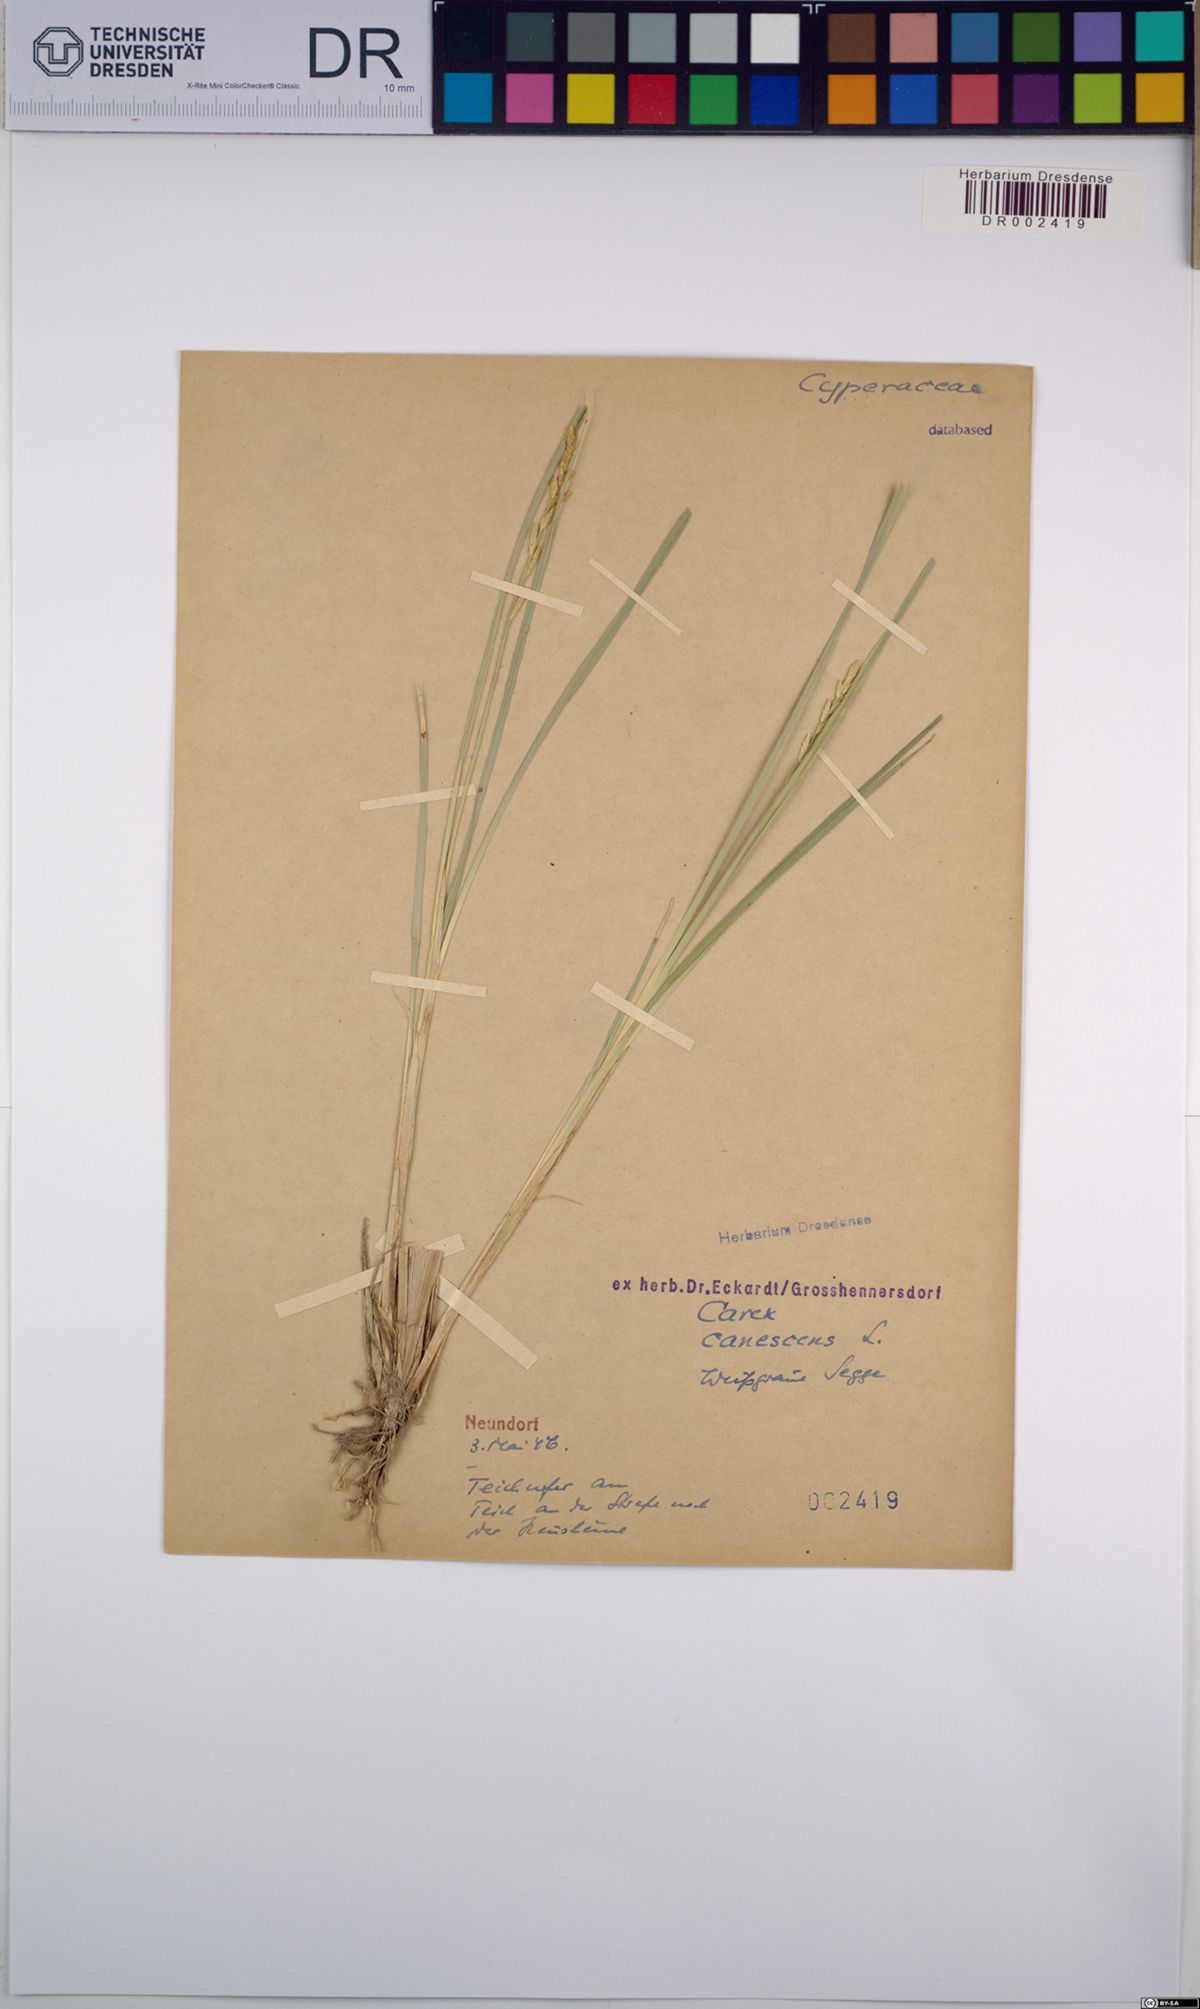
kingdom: Plantae
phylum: Tracheophyta
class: Liliopsida
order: Poales
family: Cyperaceae
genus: Carex
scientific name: Carex canescens
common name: White sedge
